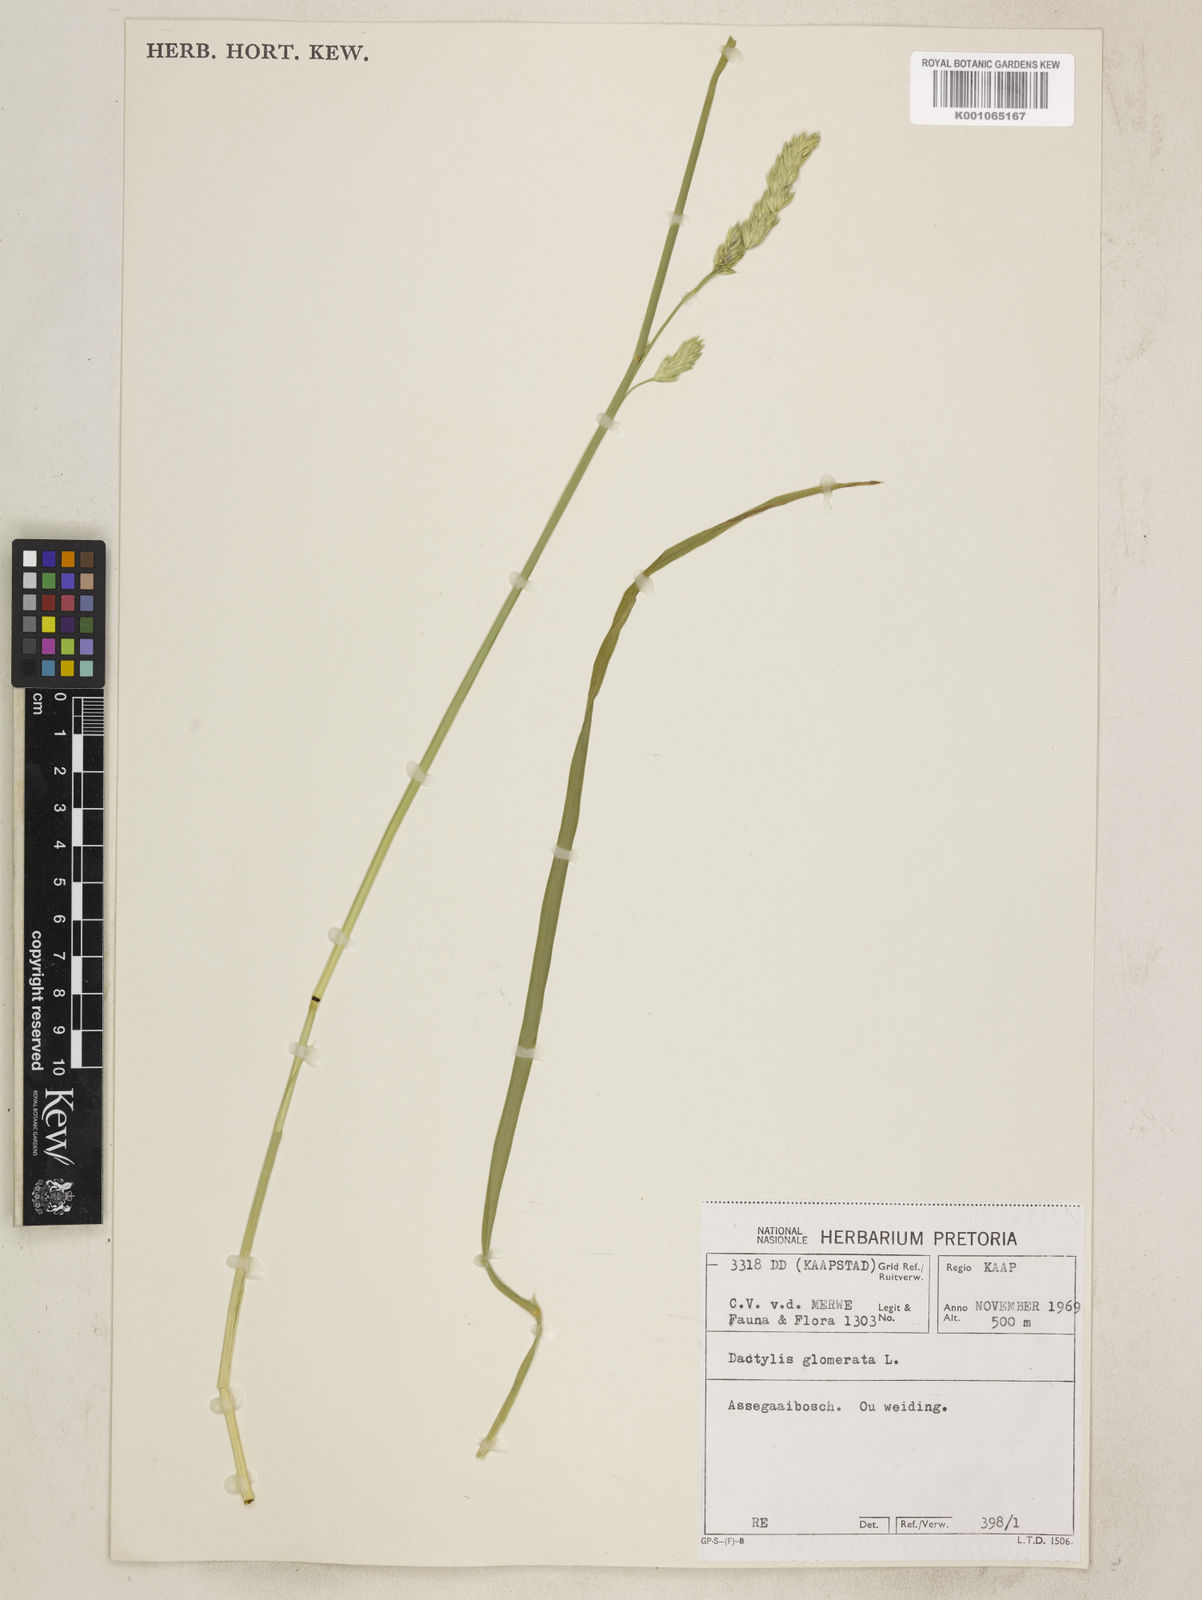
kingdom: Plantae
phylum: Tracheophyta
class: Liliopsida
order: Poales
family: Poaceae
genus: Dactylis
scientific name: Dactylis glomerata
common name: Orchardgrass
